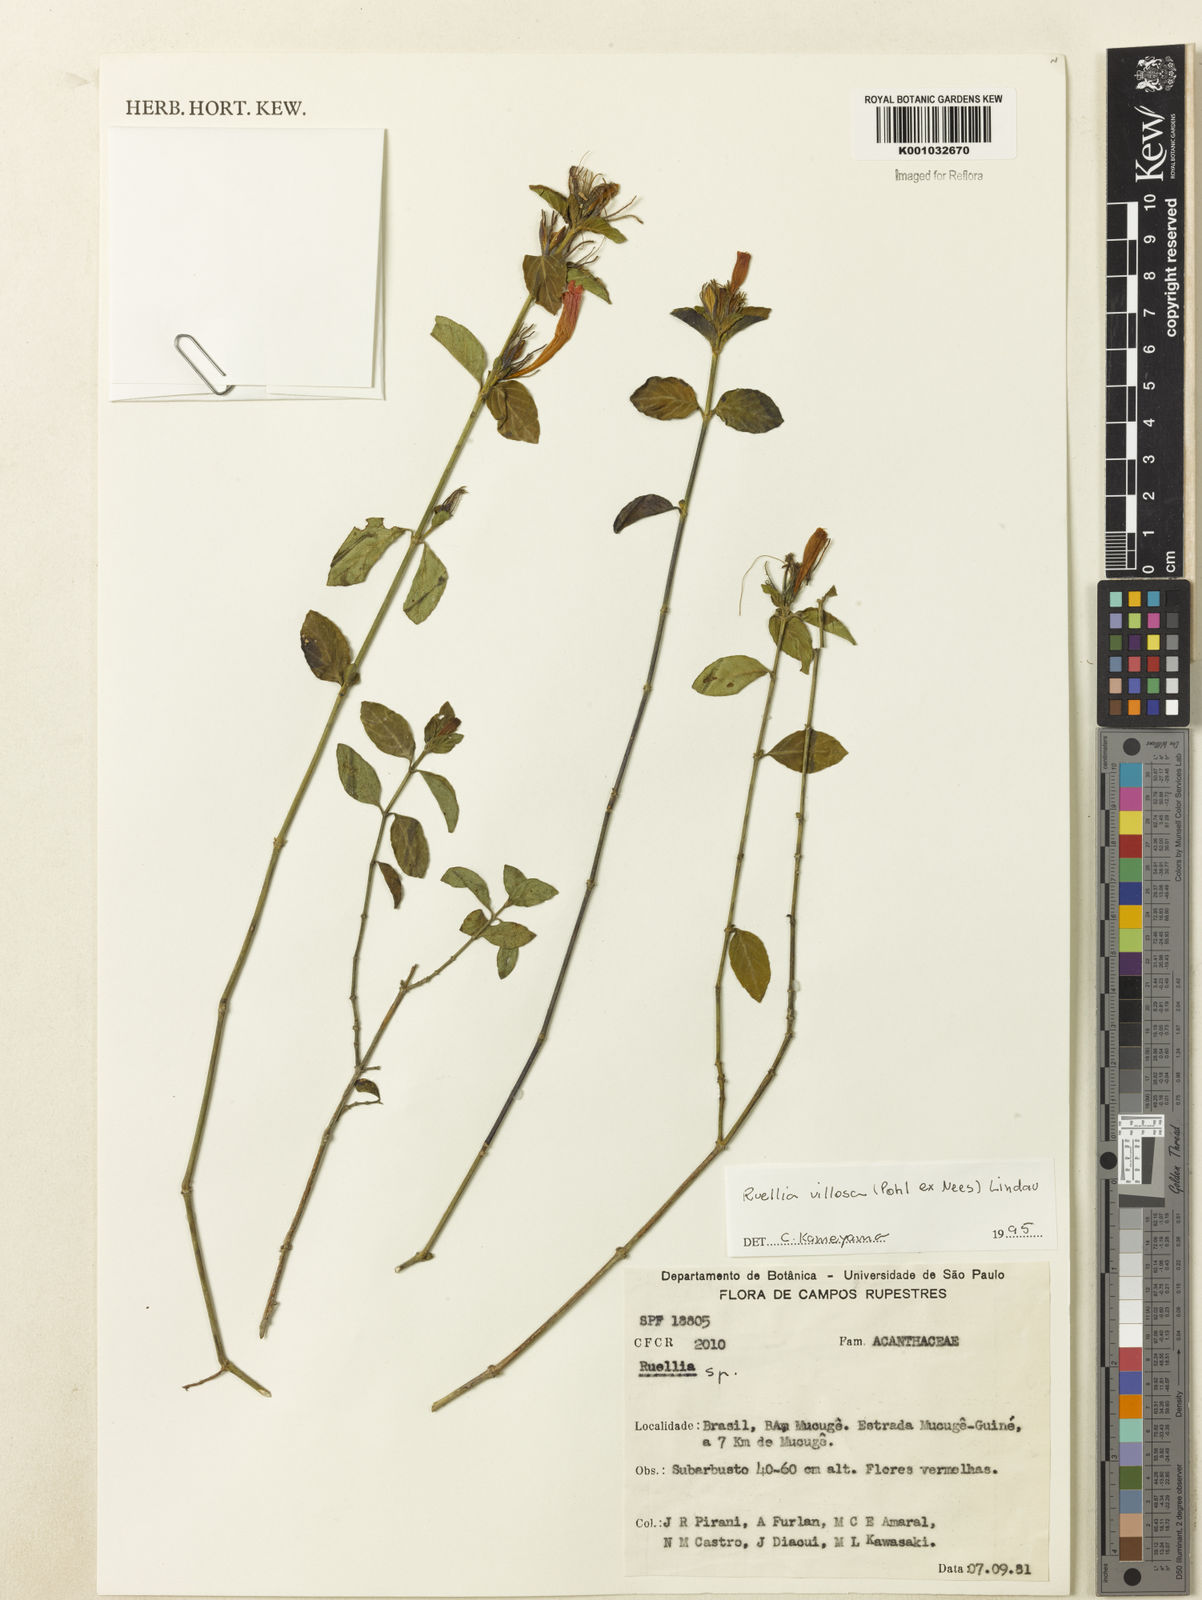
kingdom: Plantae
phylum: Tracheophyta
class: Magnoliopsida
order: Lamiales
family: Acanthaceae
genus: Ruellia
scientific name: Ruellia villosa
